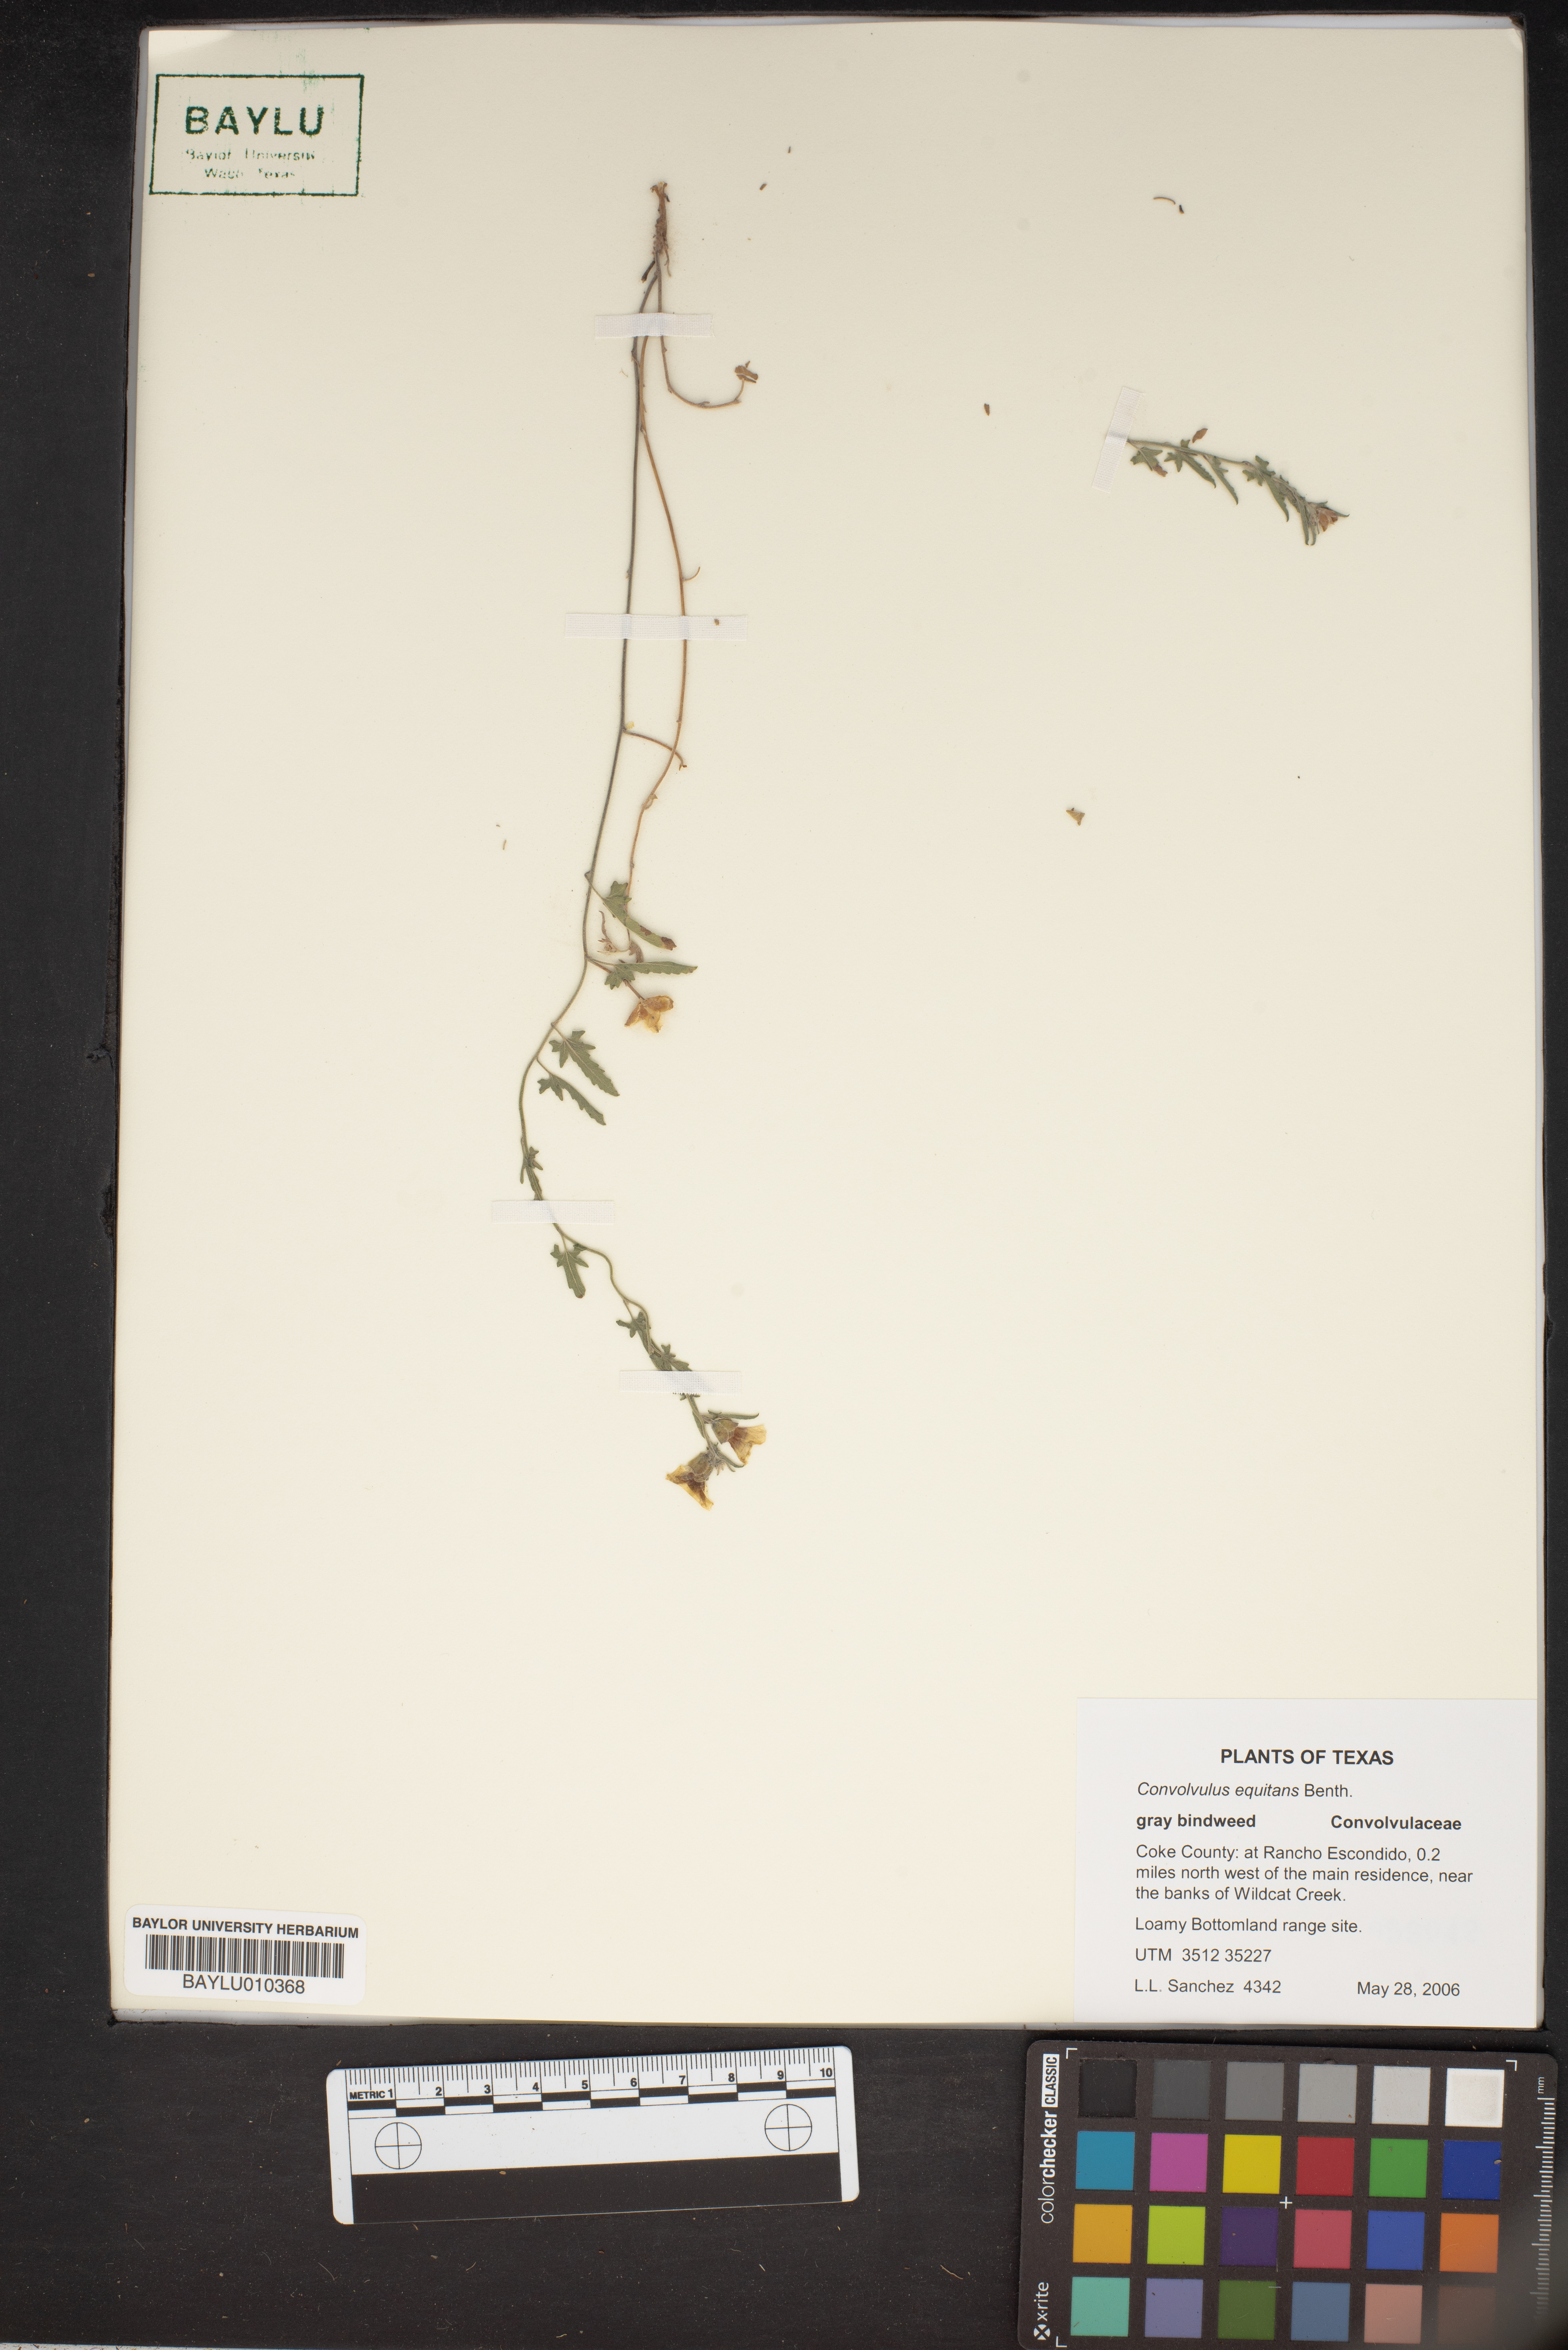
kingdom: Plantae
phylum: Tracheophyta
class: Magnoliopsida
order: Solanales
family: Convolvulaceae
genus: Convolvulus
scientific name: Convolvulus equitans
